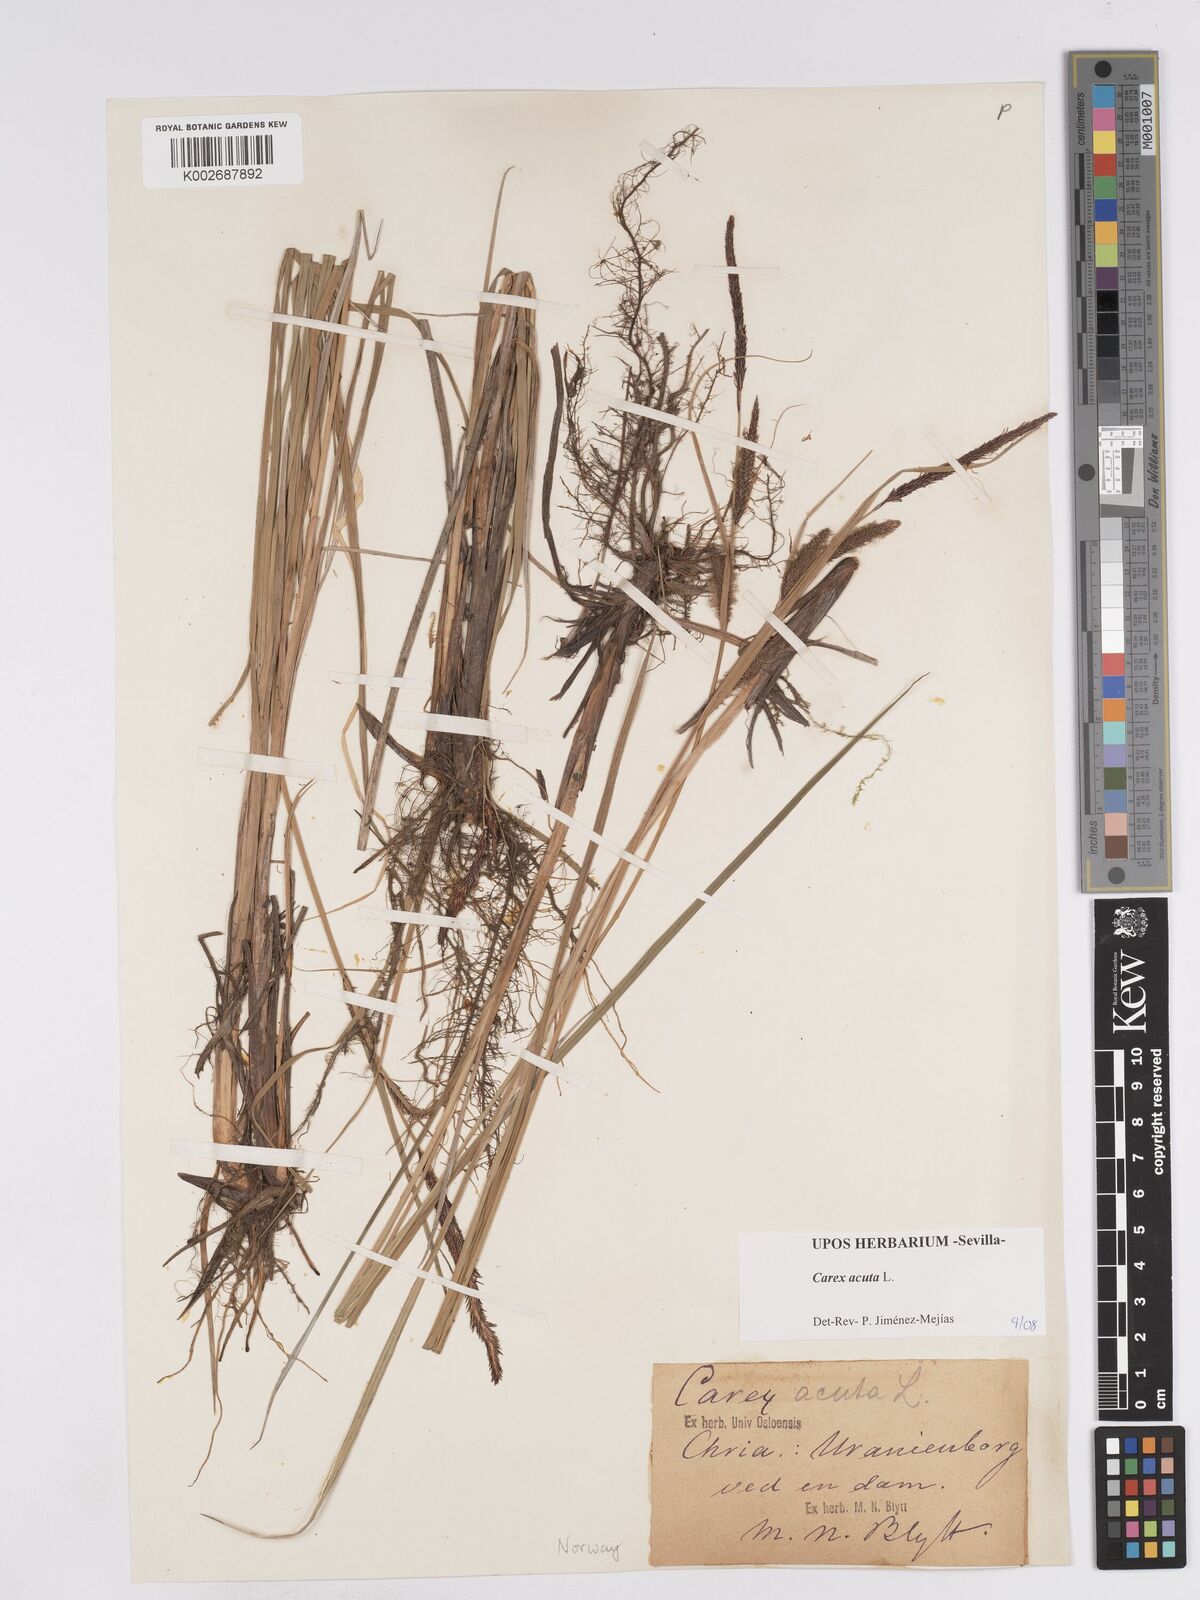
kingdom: Plantae
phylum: Tracheophyta
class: Liliopsida
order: Poales
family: Cyperaceae
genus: Carex
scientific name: Carex acuta
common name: Slender tufted-sedge
